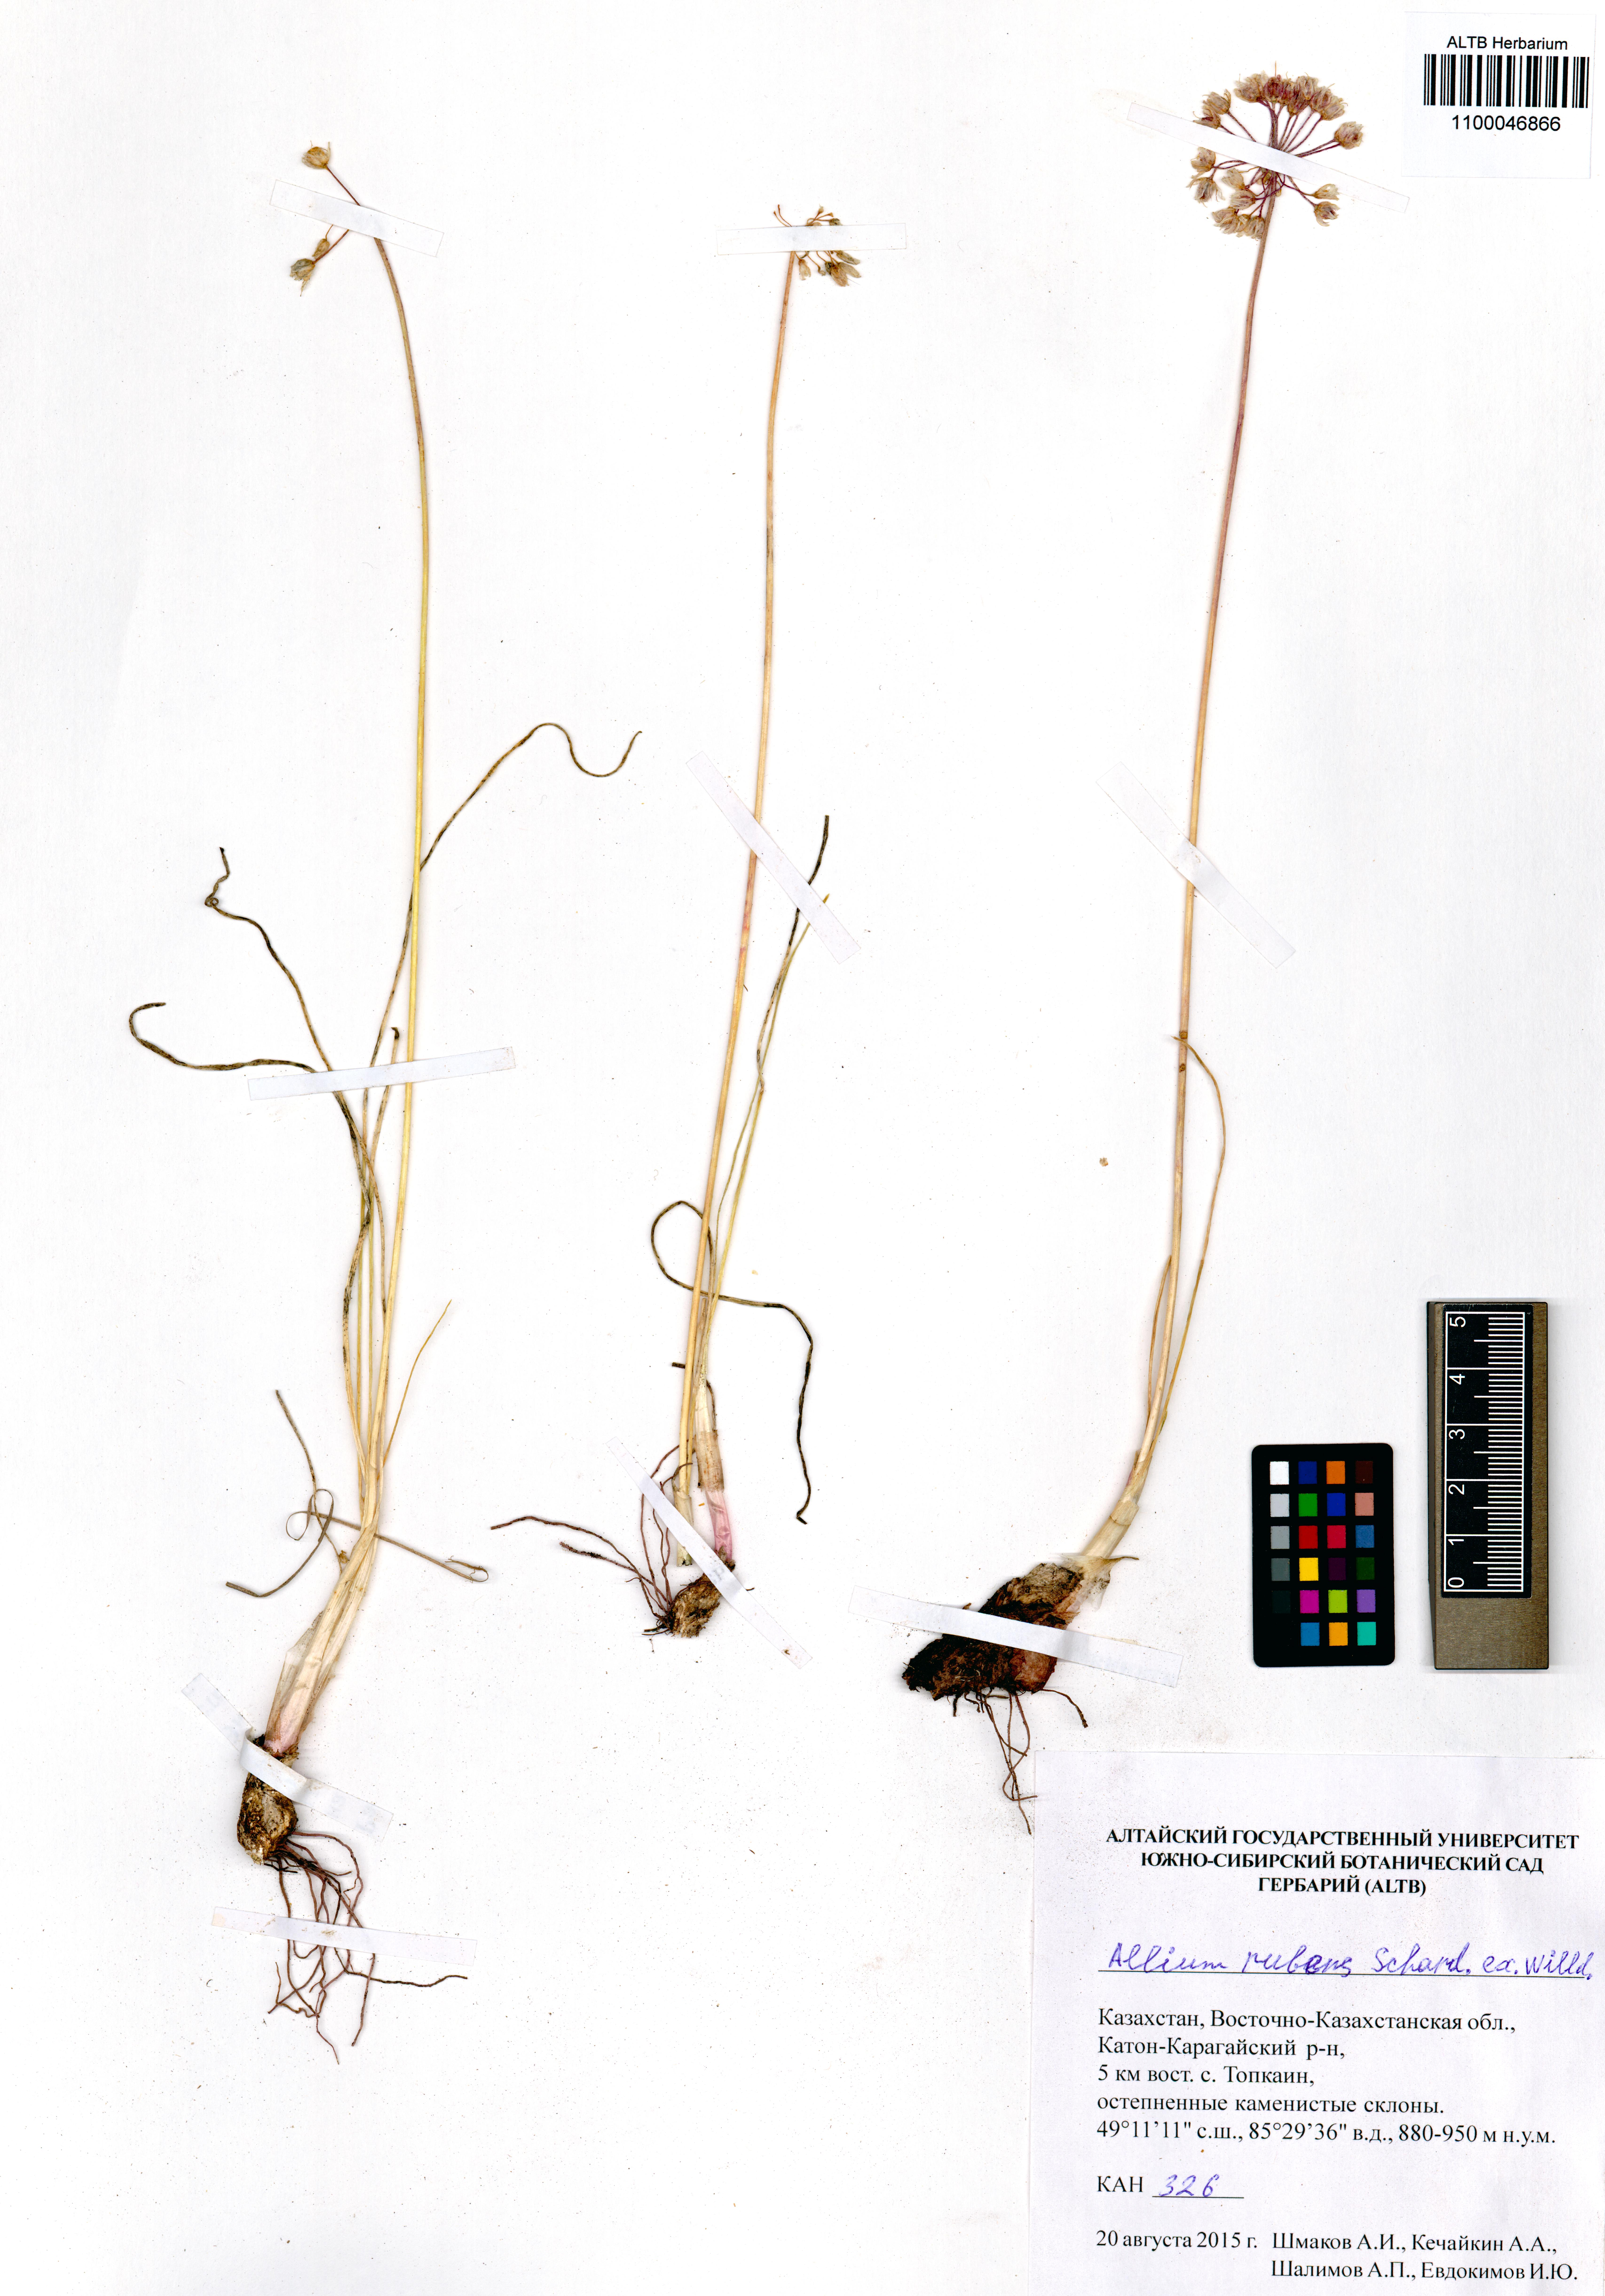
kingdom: Plantae
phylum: Tracheophyta
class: Liliopsida
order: Asparagales
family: Amaryllidaceae
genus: Allium
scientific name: Allium rubens
